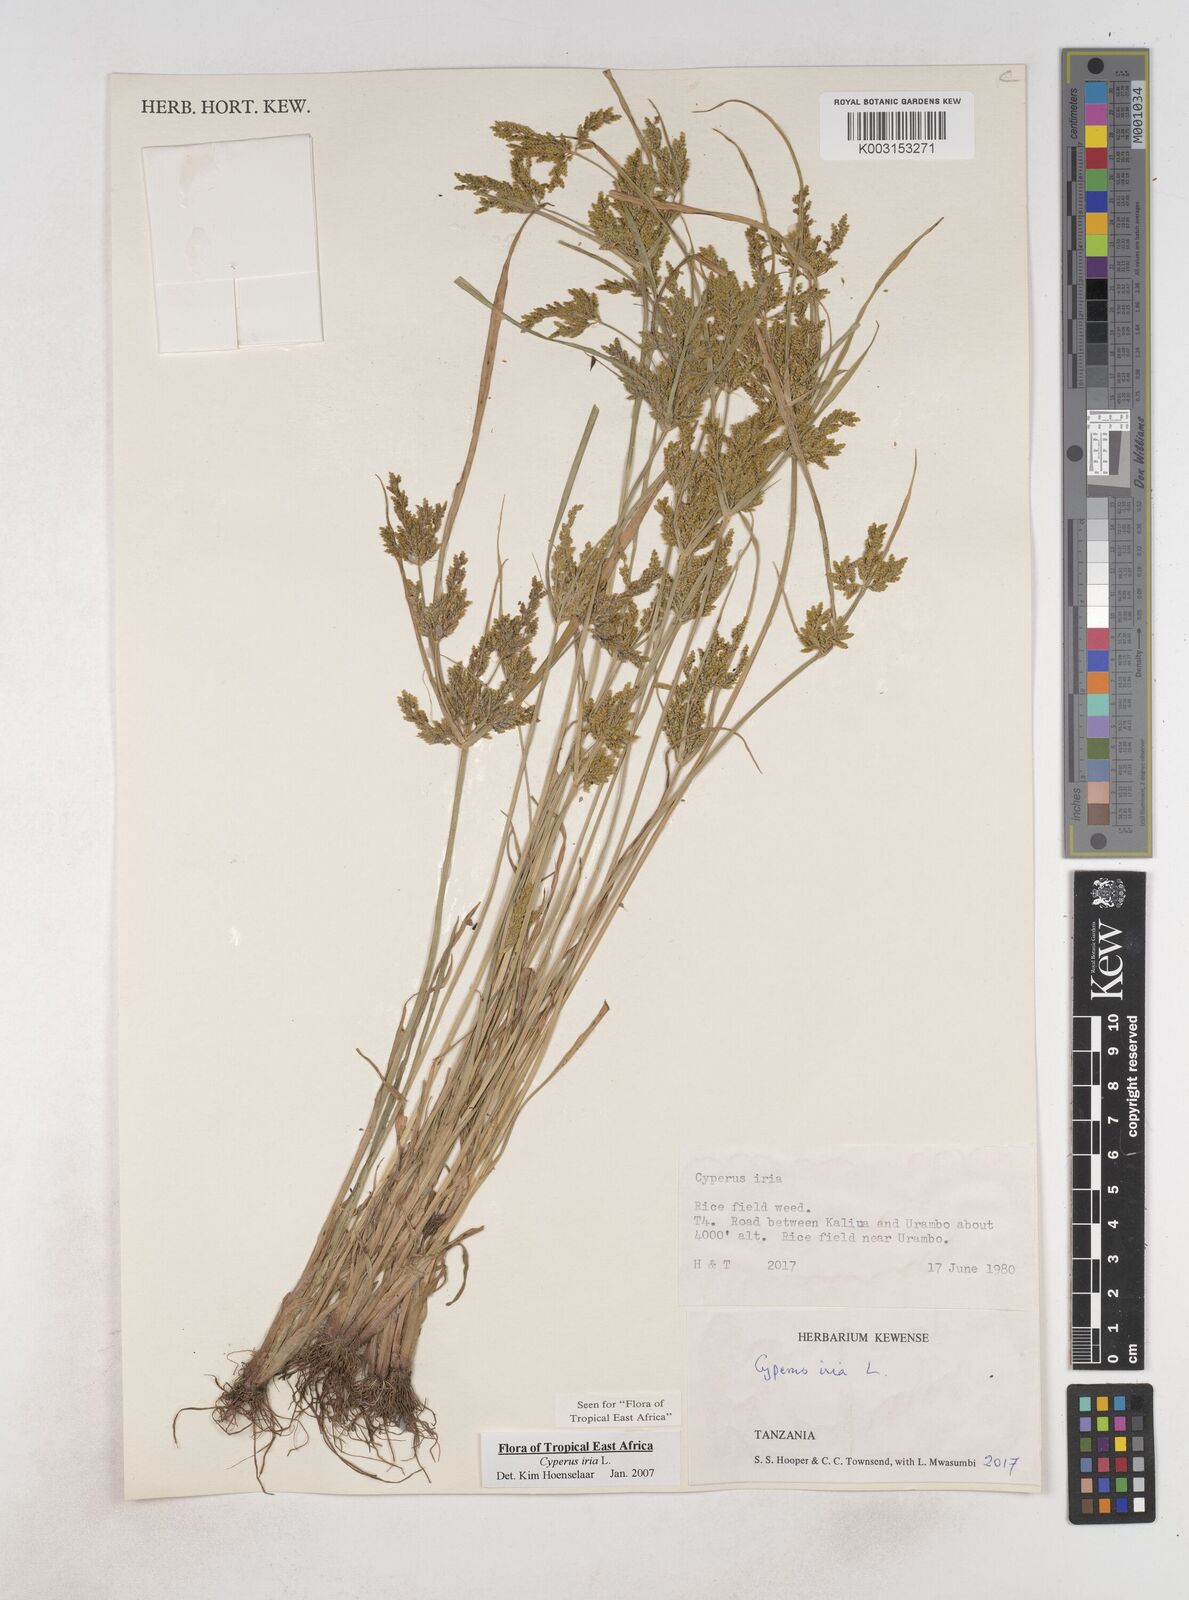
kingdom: Plantae
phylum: Tracheophyta
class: Liliopsida
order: Poales
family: Cyperaceae
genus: Cyperus
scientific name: Cyperus iria
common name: Ricefield flatsedge
